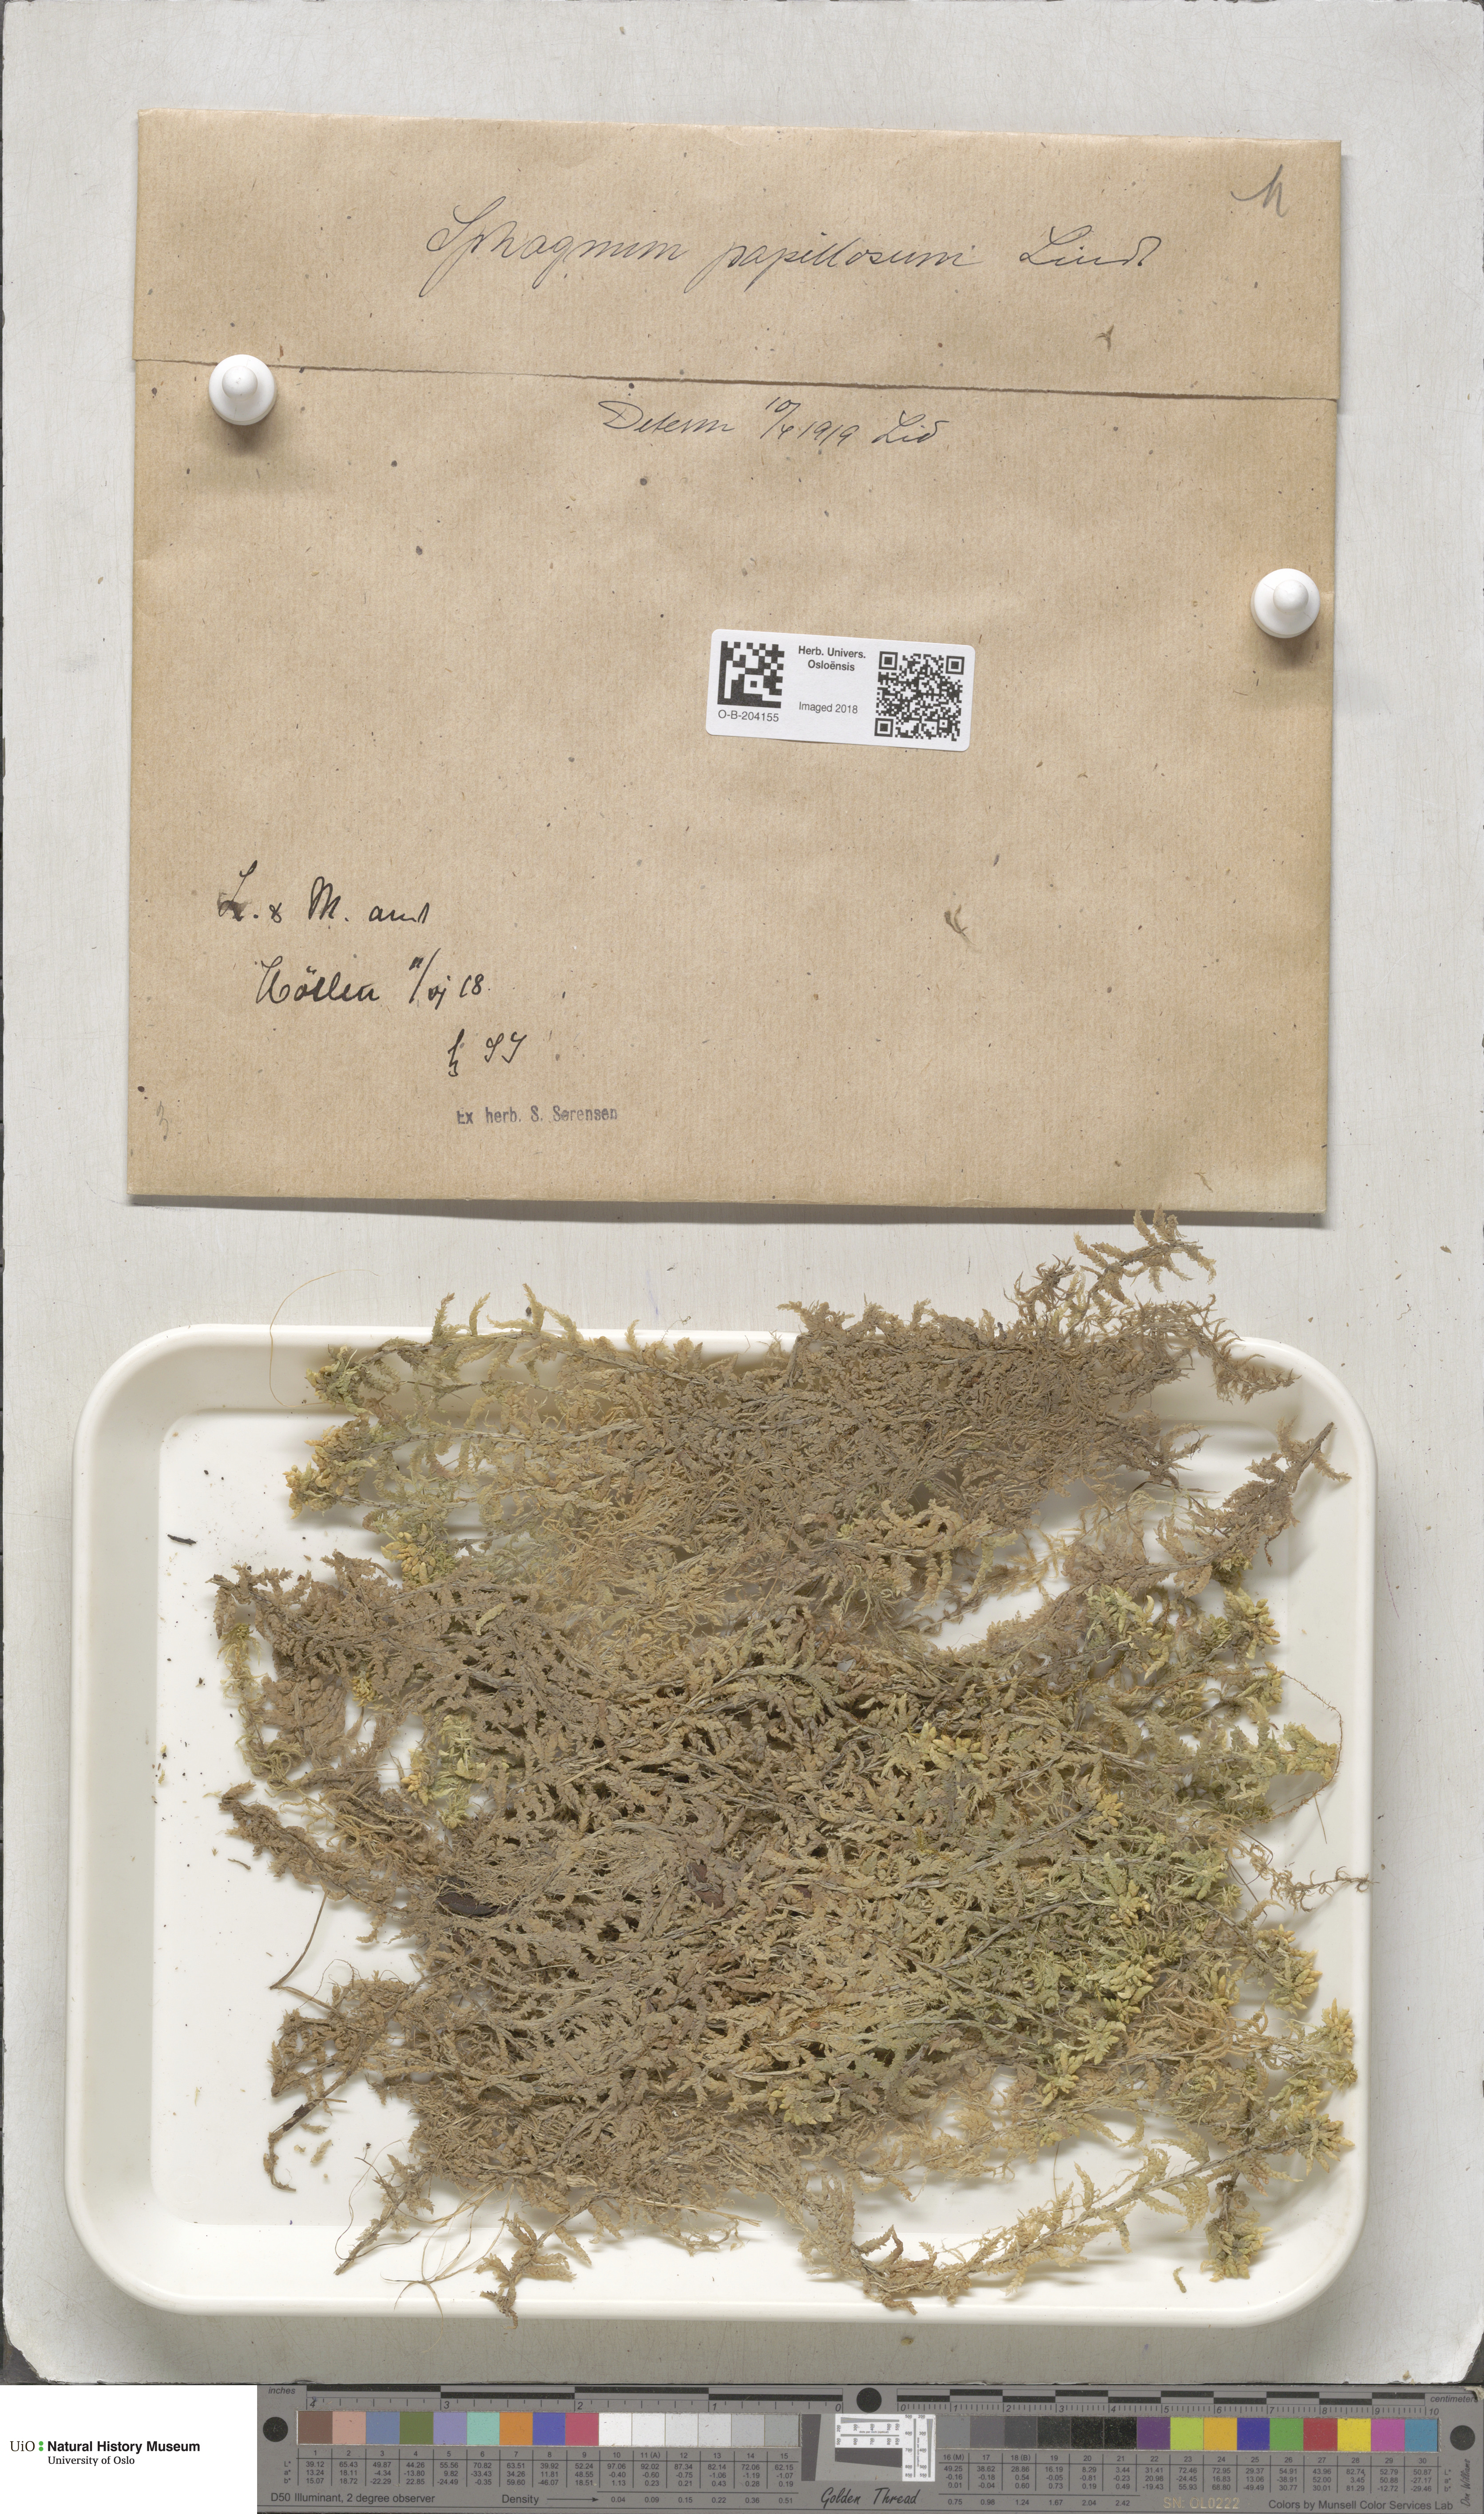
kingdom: Plantae
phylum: Bryophyta
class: Sphagnopsida
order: Sphagnales
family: Sphagnaceae
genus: Sphagnum
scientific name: Sphagnum papillosum
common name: Papillose peat moss
